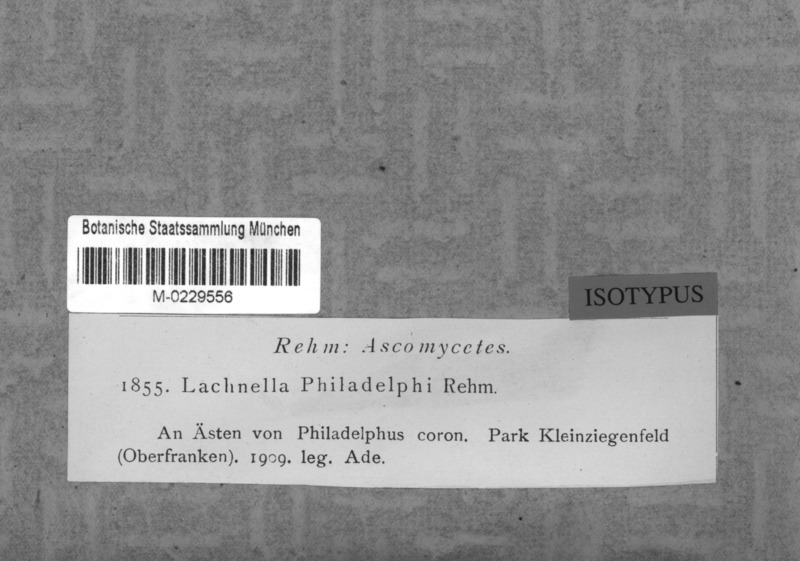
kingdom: Fungi
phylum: Basidiomycota
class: Agaricomycetes
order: Agaricales
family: Niaceae
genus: Lachnella
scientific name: Lachnella philadelphi
